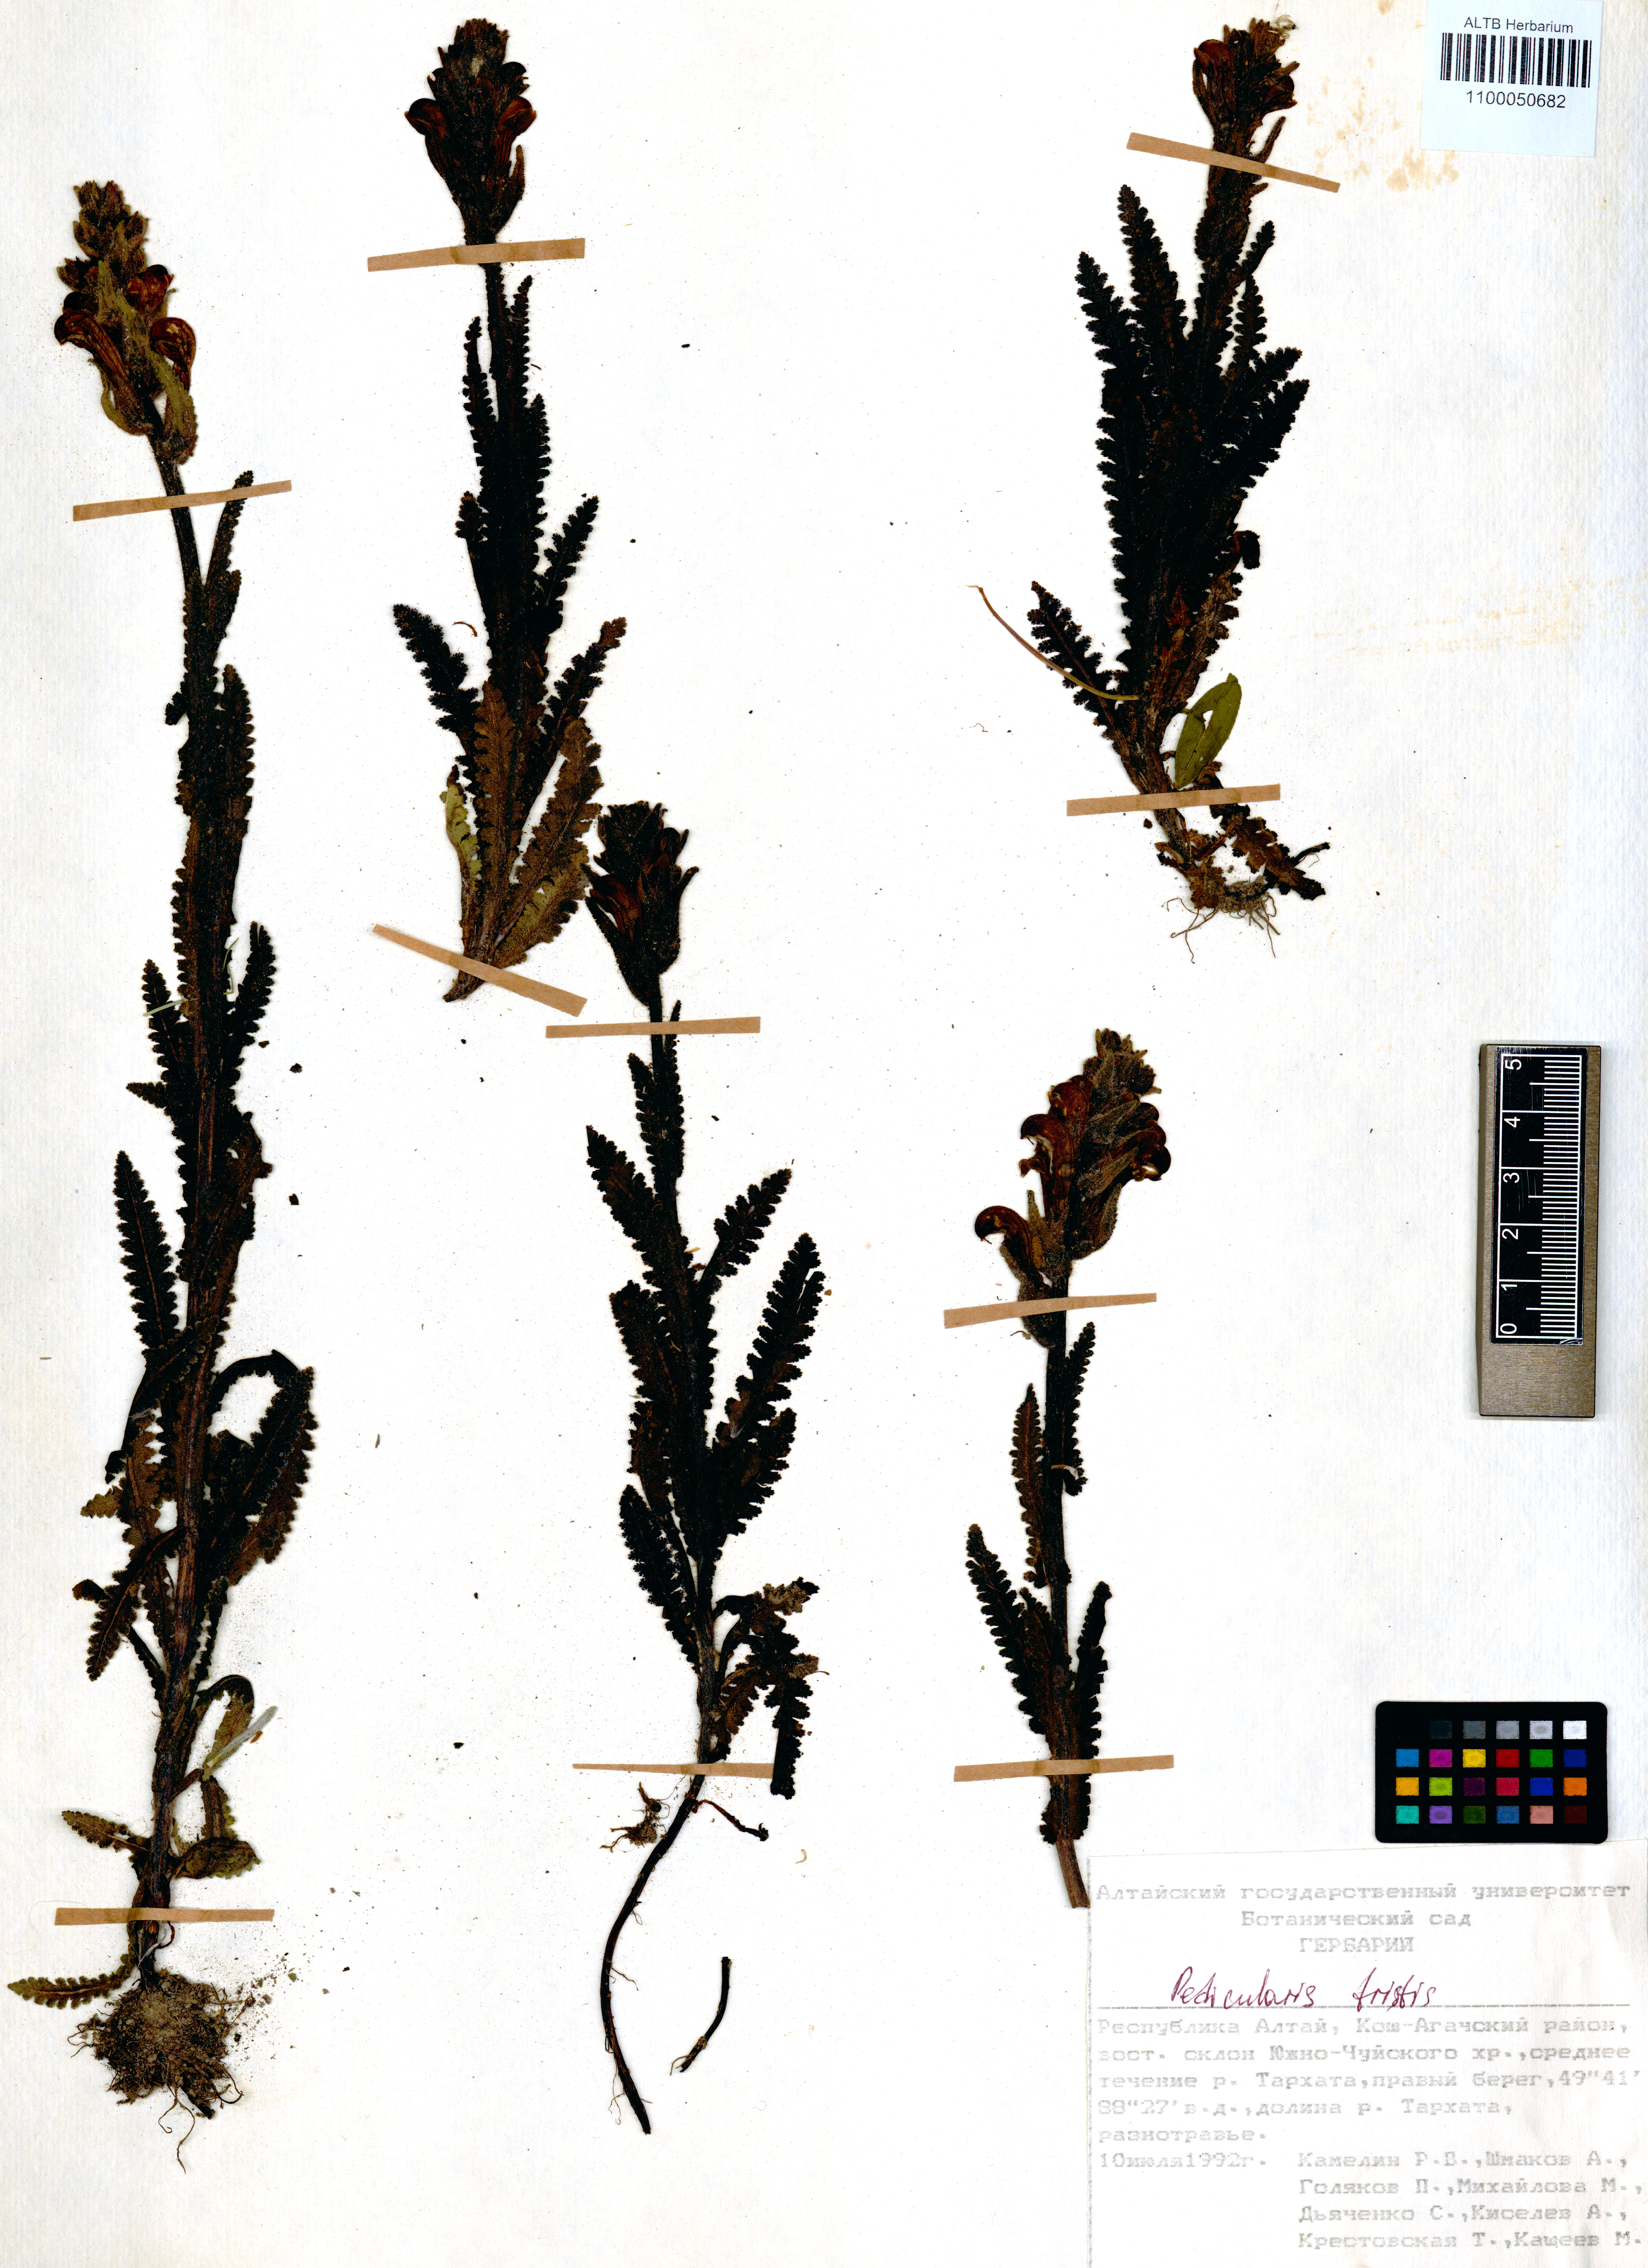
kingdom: Plantae
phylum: Tracheophyta
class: Magnoliopsida
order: Lamiales
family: Orobanchaceae
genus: Pedicularis
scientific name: Pedicularis tristis
